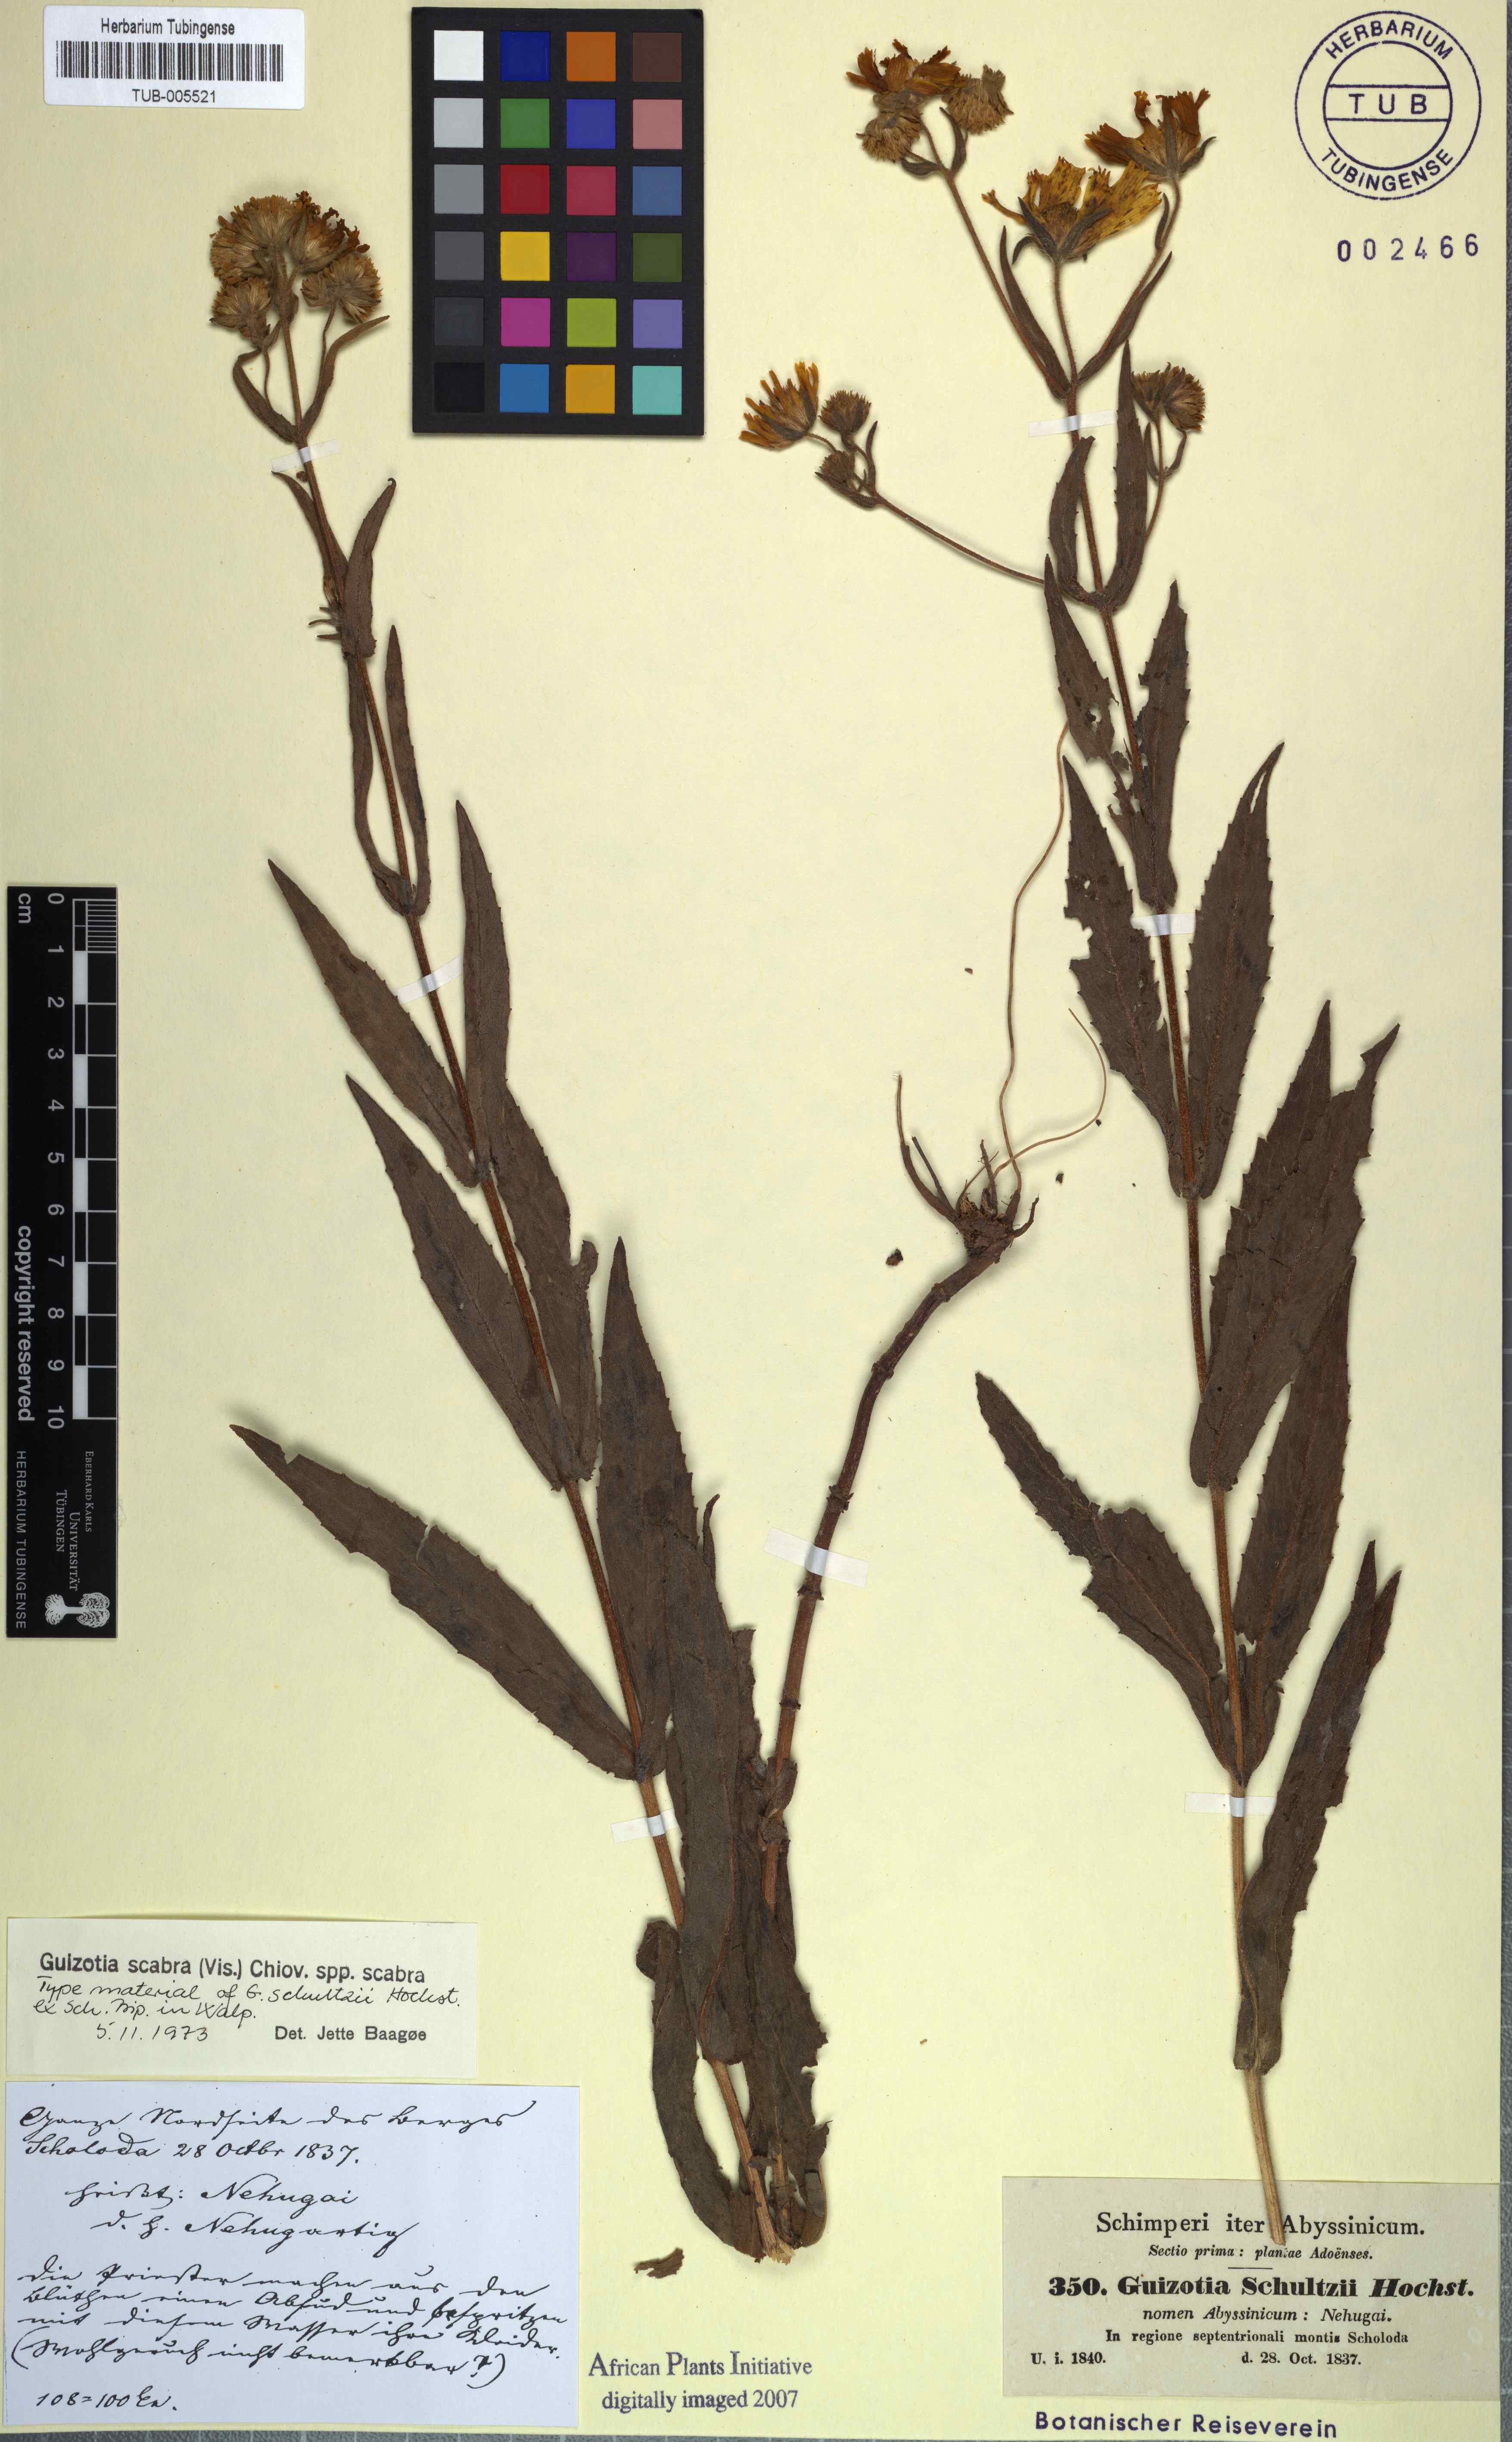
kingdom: Plantae
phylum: Tracheophyta
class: Magnoliopsida
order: Asterales
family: Asteraceae
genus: Guizotia
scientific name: Guizotia scabra
